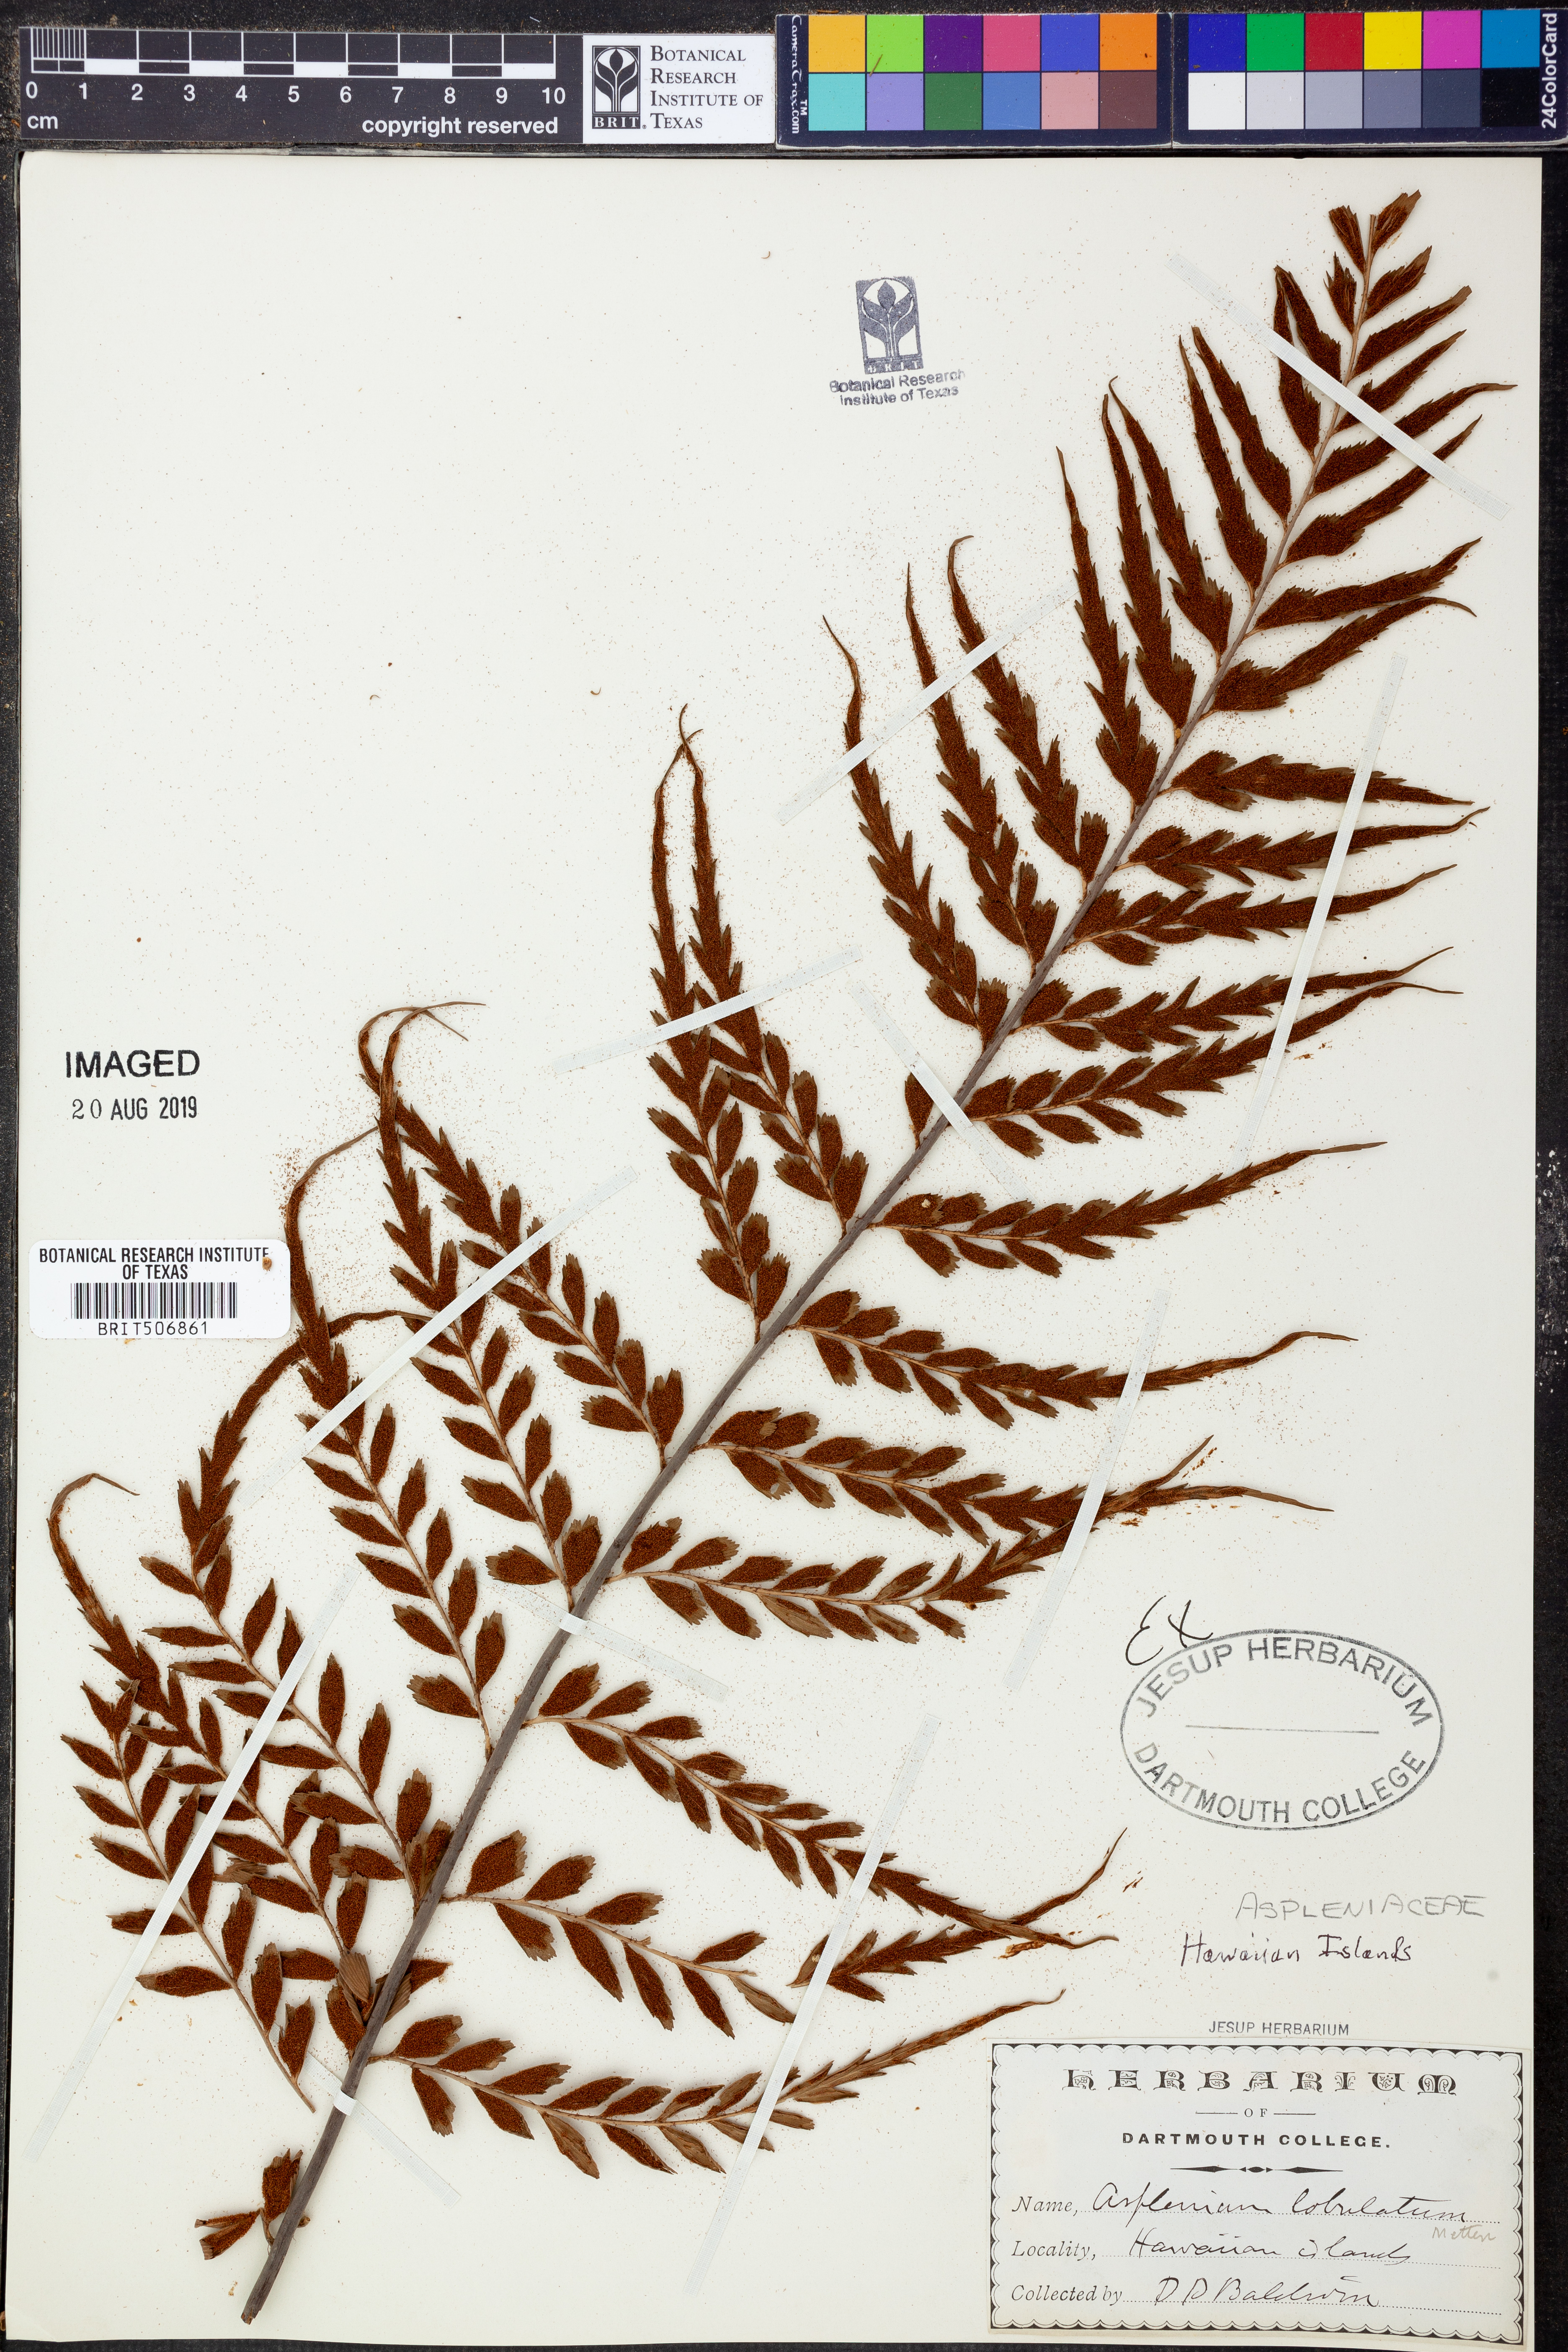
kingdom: Plantae
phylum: Tracheophyta
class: Polypodiopsida
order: Polypodiales
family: Aspleniaceae
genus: Asplenium
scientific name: Asplenium lobulatum
